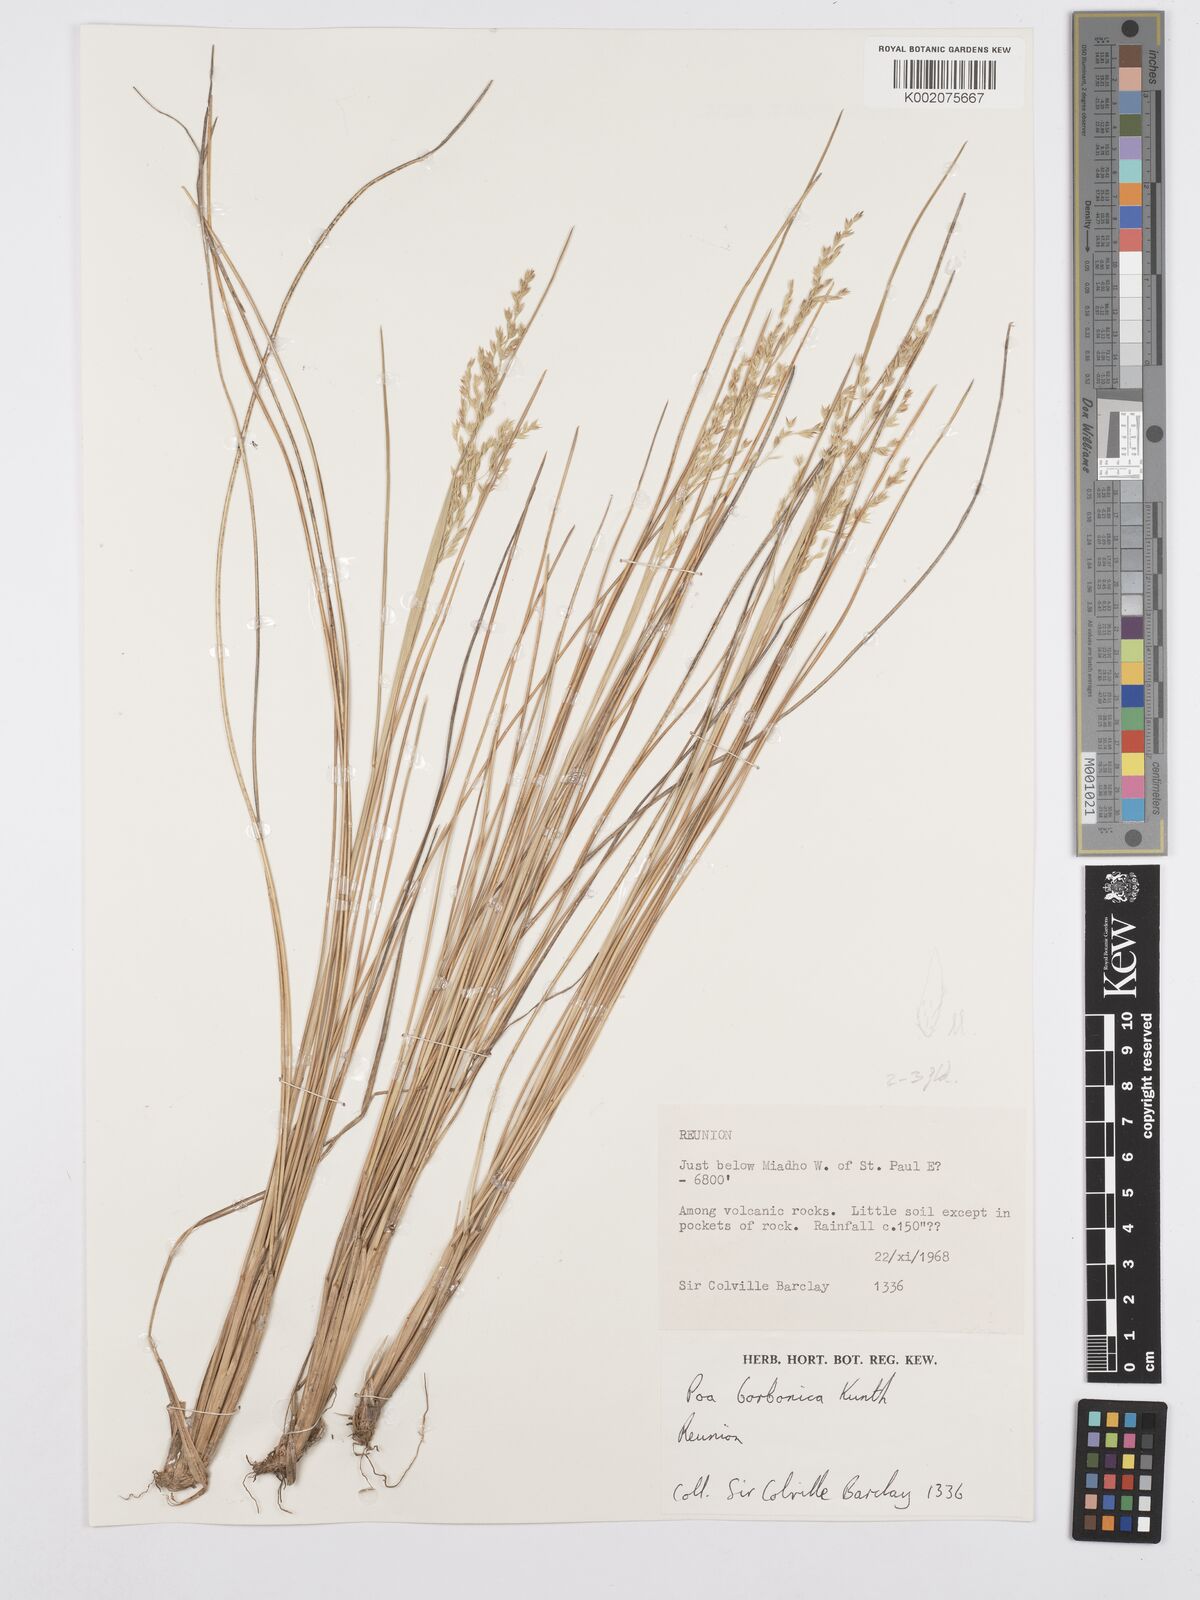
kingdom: Plantae
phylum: Tracheophyta
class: Liliopsida
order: Poales
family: Poaceae
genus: Poa
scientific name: Poa borbonica
